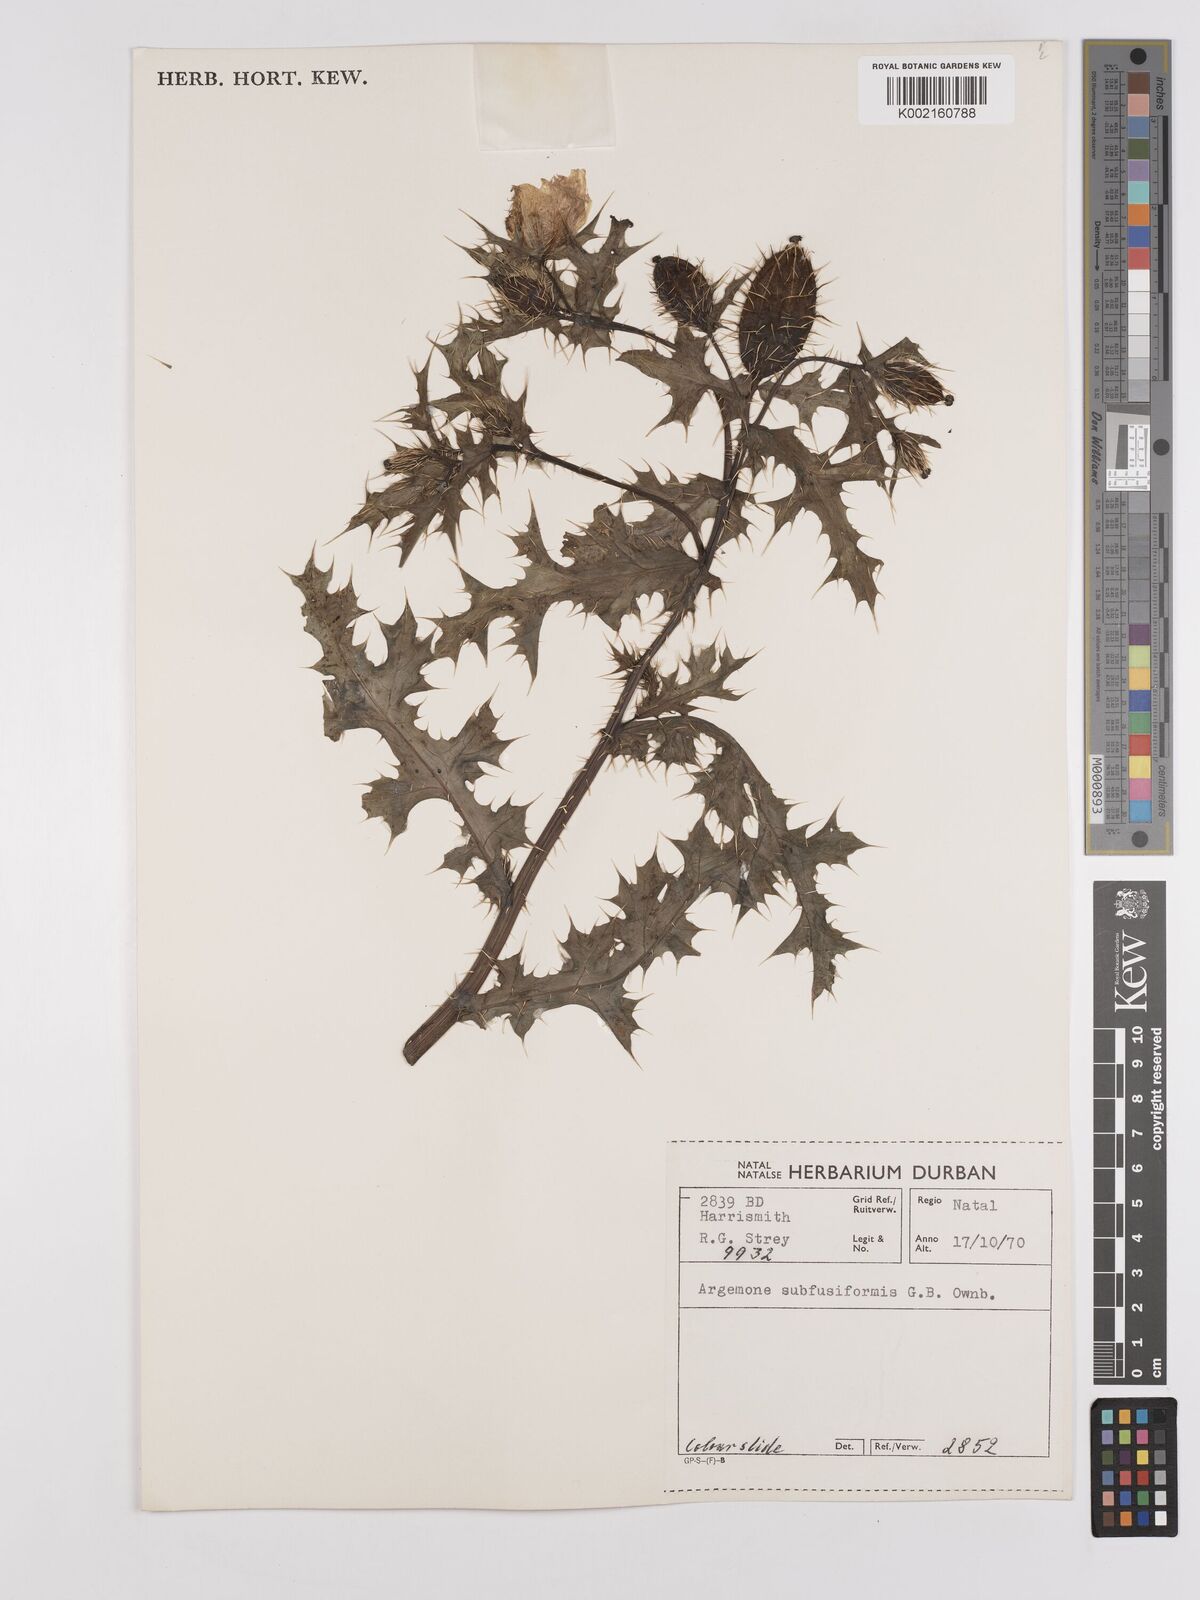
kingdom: Plantae
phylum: Tracheophyta
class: Magnoliopsida
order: Ranunculales
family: Papaveraceae
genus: Argemone
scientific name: Argemone subfusiformis
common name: American-poppy
